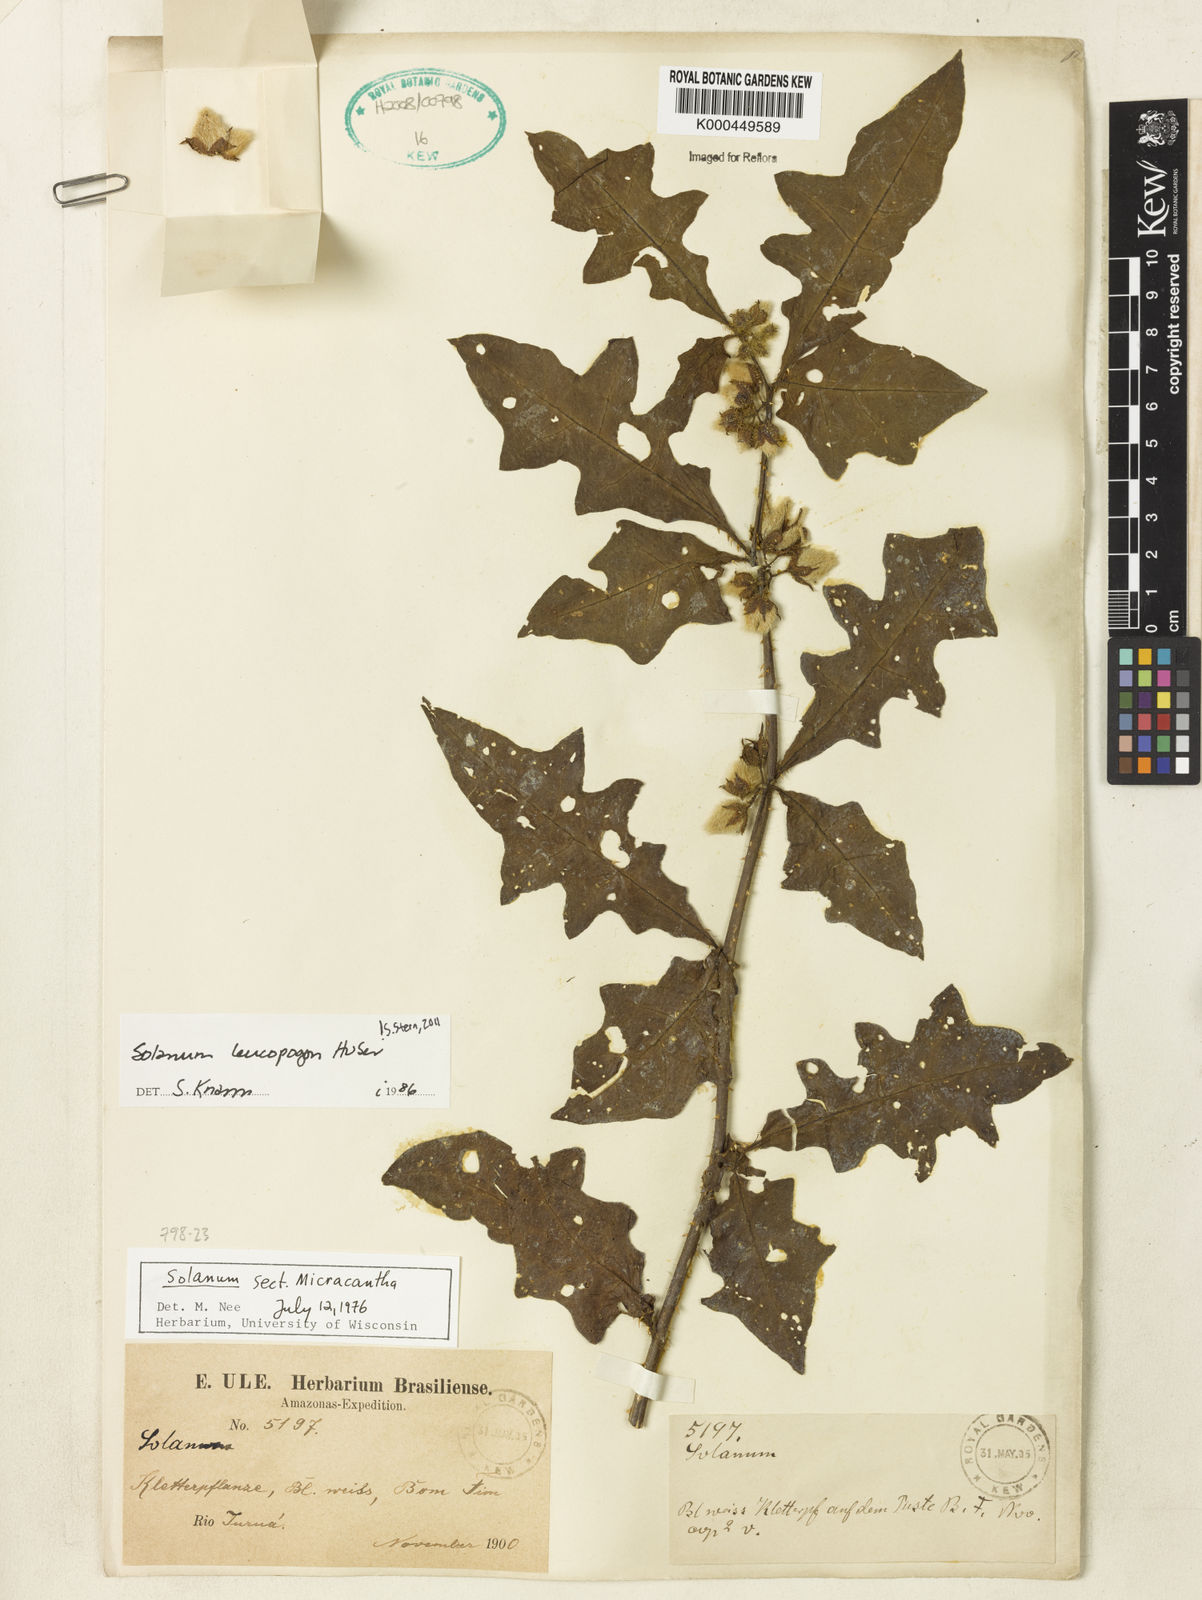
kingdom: Plantae
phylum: Tracheophyta
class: Magnoliopsida
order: Solanales
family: Solanaceae
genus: Solanum
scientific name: Solanum leucopogon
